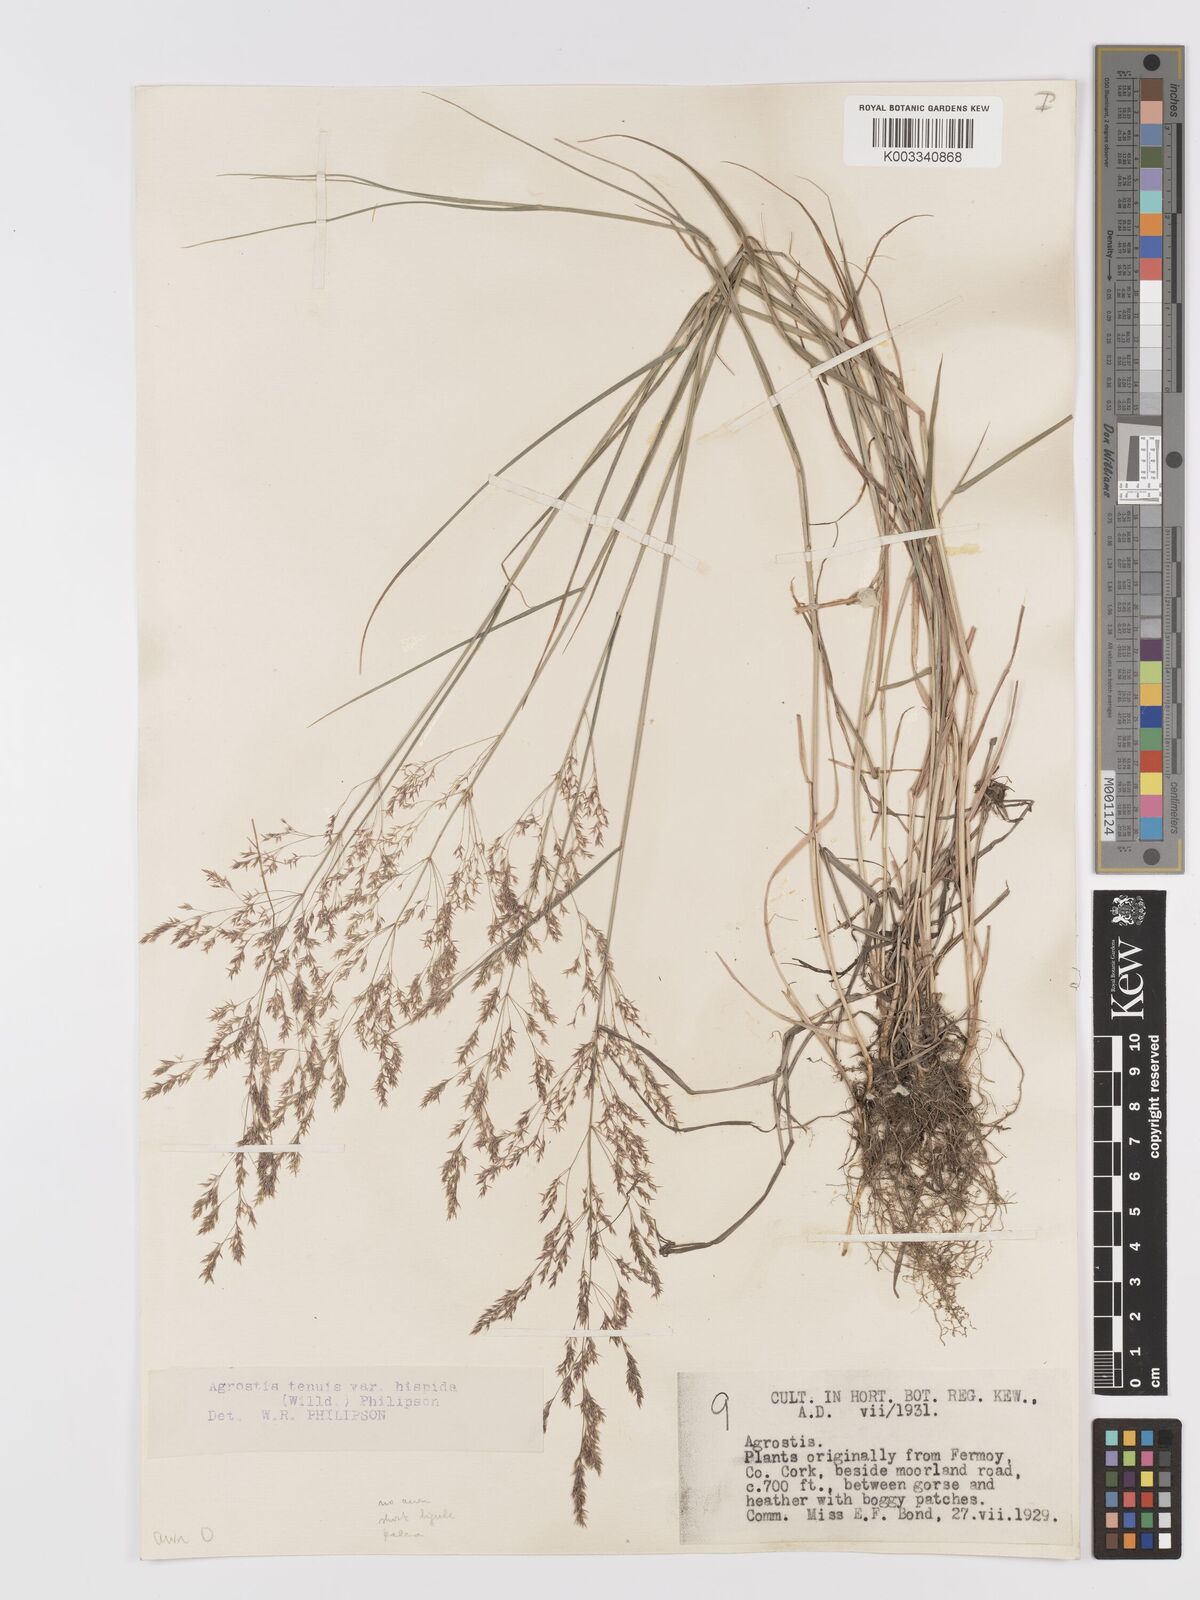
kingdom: Plantae
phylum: Tracheophyta
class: Liliopsida
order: Poales
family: Poaceae
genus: Agrostis
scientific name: Agrostis capillaris
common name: Colonial bentgrass
